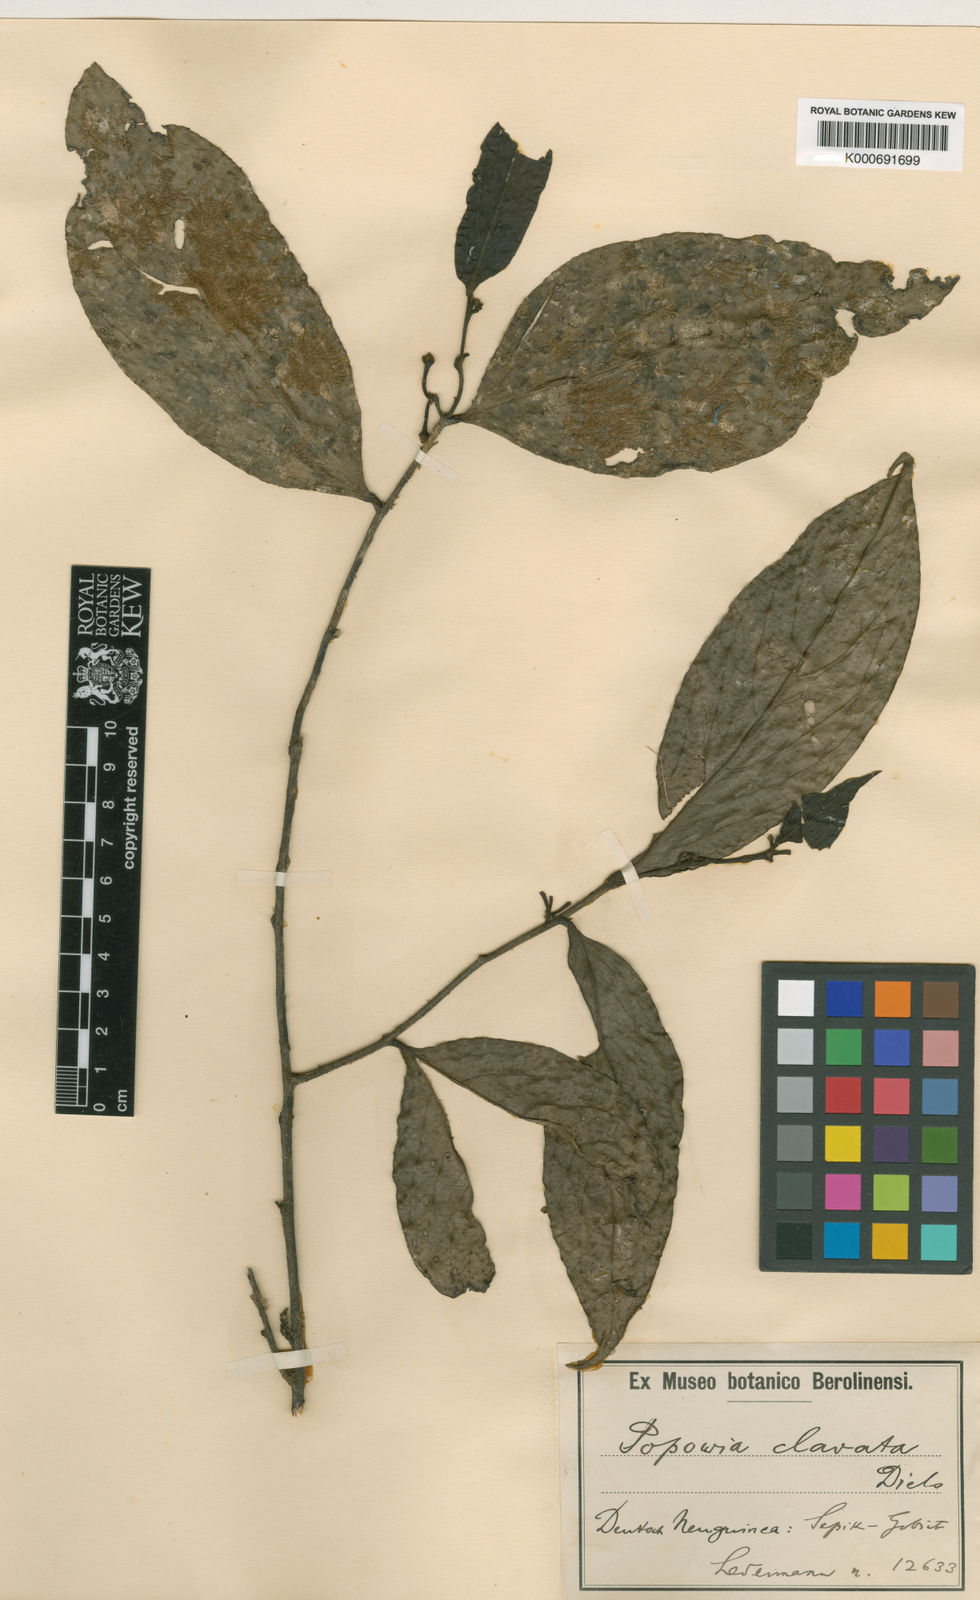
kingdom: Plantae
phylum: Tracheophyta
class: Magnoliopsida
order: Magnoliales
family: Annonaceae
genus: Popowia
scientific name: Popowia clavata
